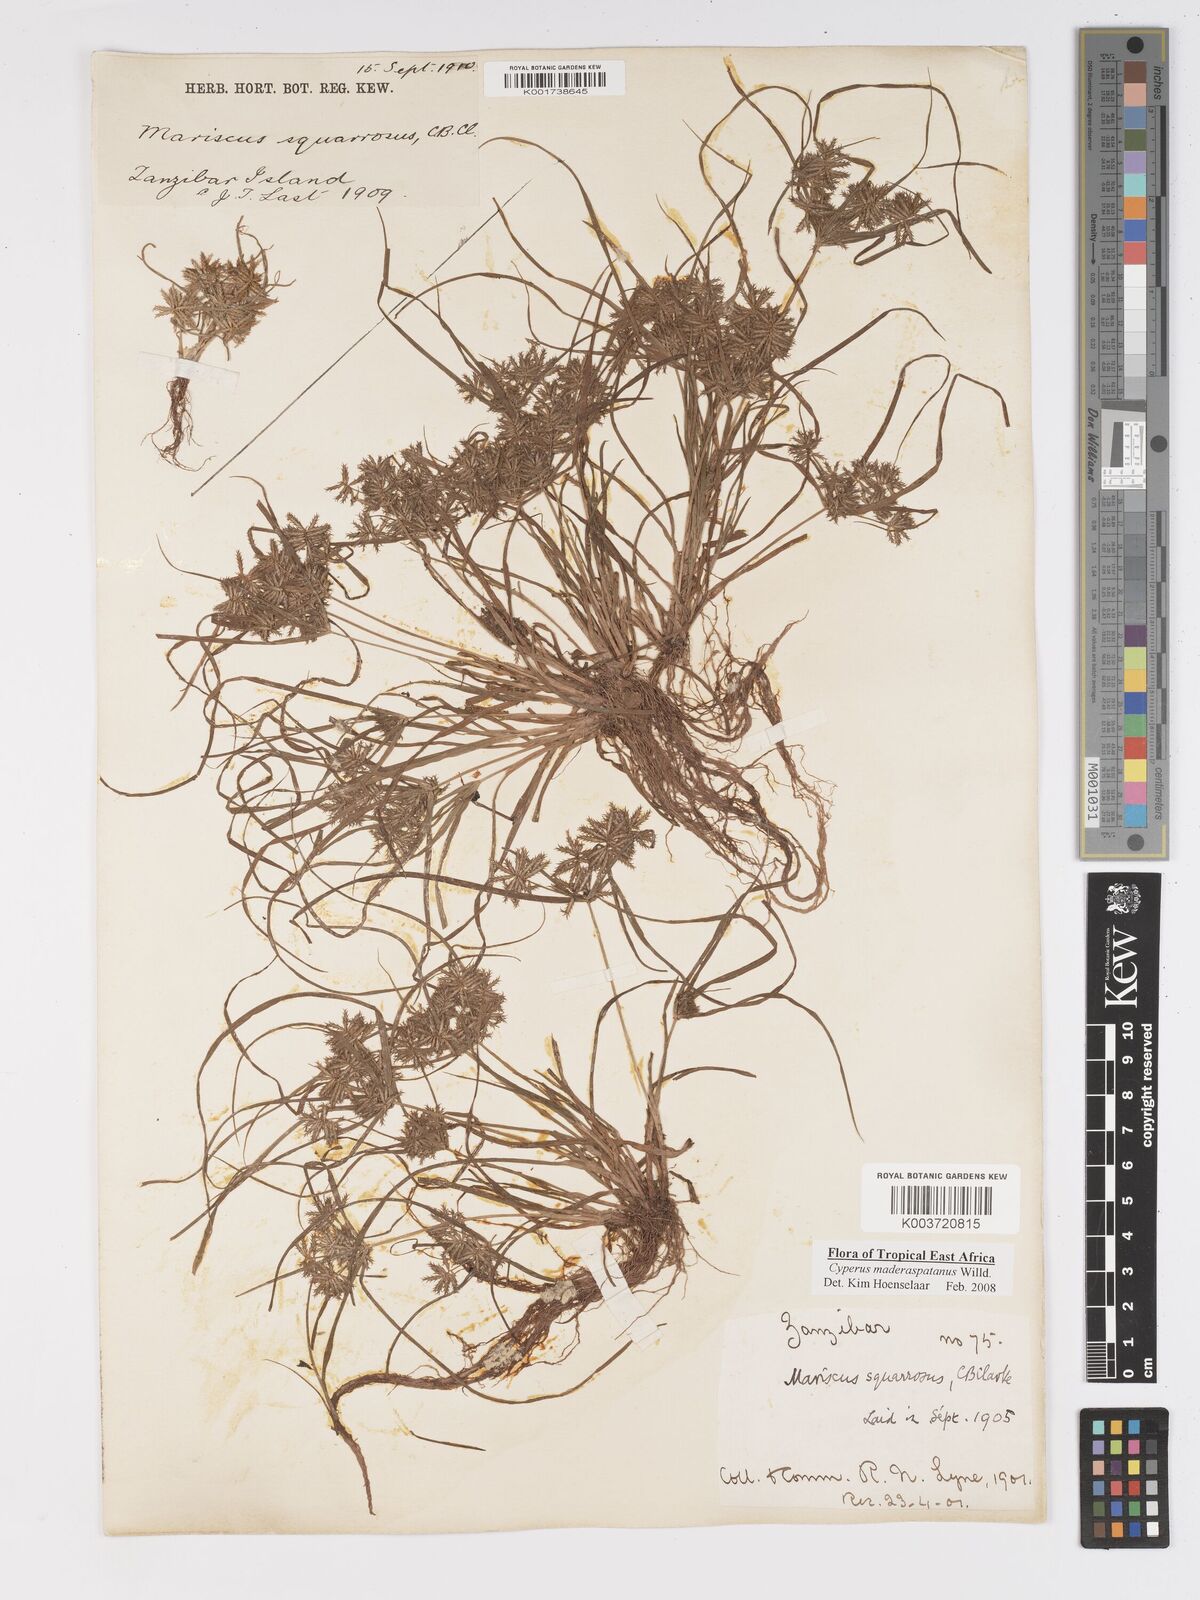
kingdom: Plantae
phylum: Tracheophyta
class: Liliopsida
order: Poales
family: Cyperaceae
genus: Cyperus
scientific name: Cyperus maderaspatanus
